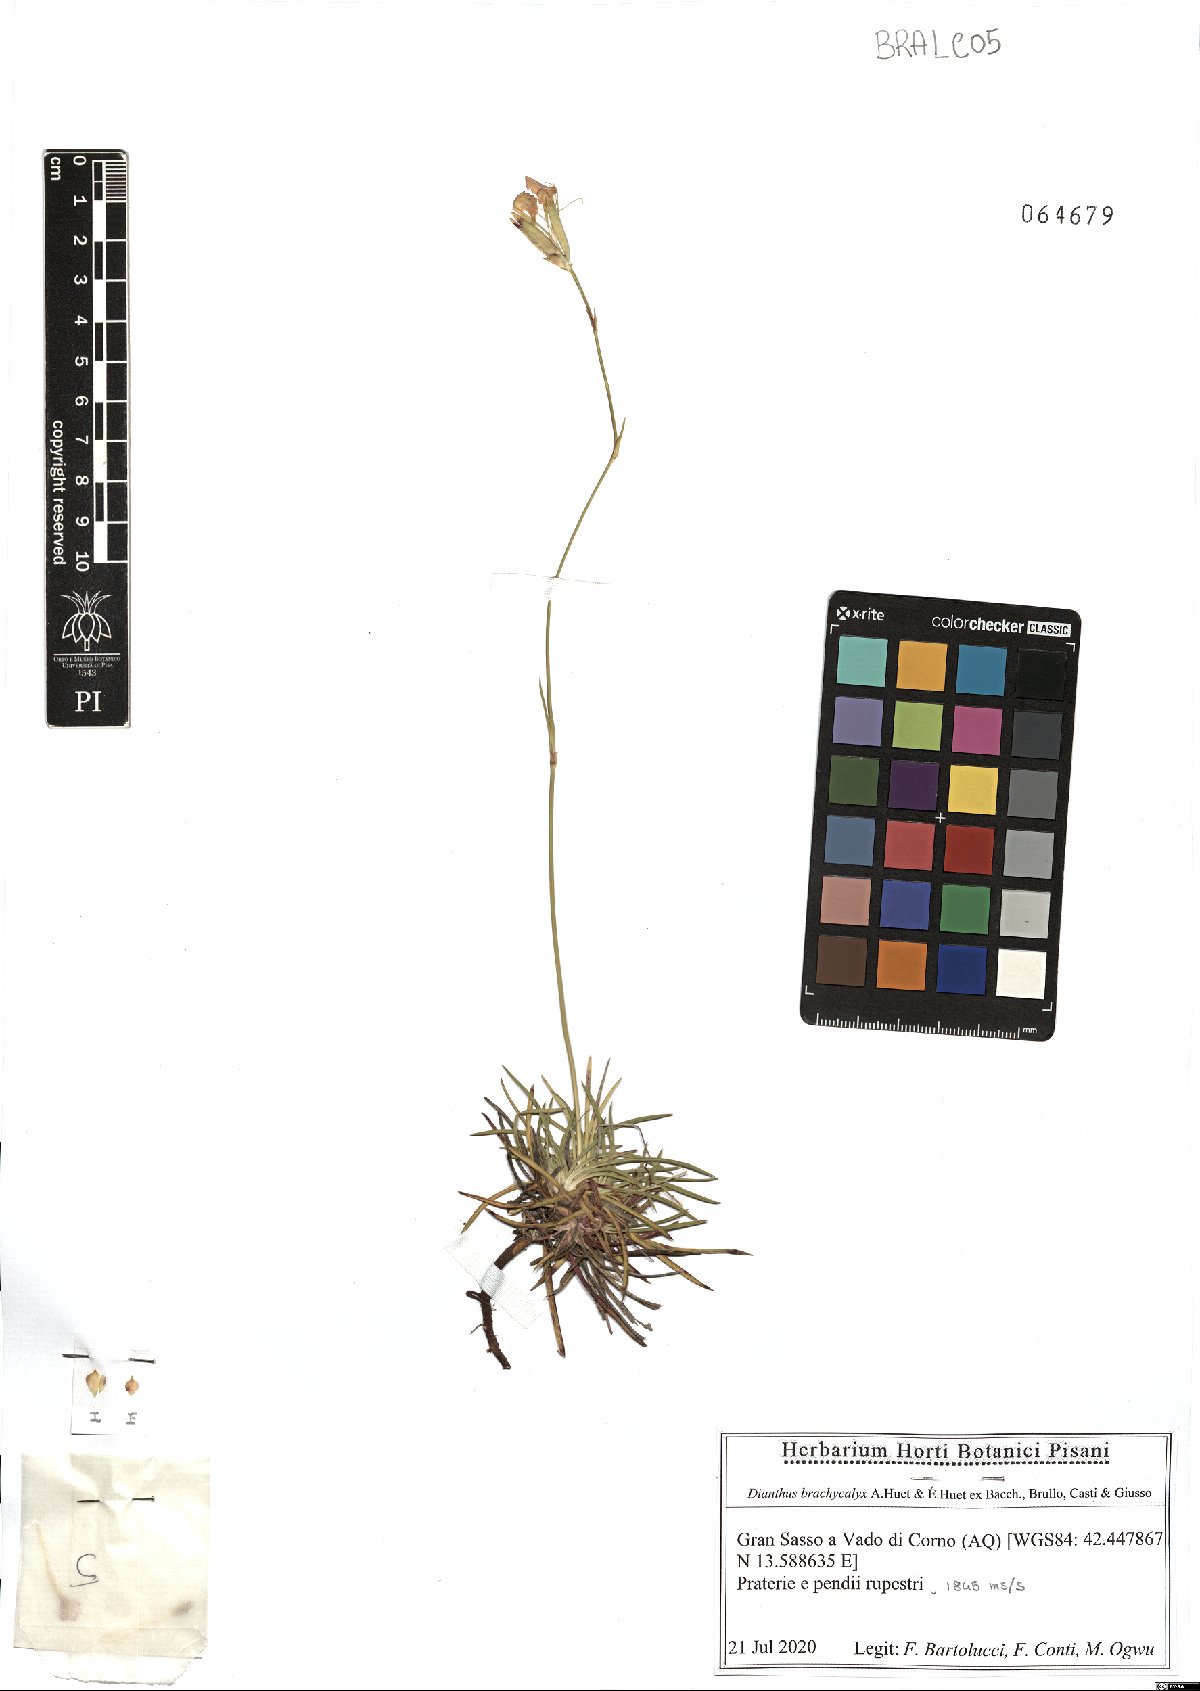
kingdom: Plantae
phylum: Tracheophyta
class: Magnoliopsida
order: Caryophyllales
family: Caryophyllaceae
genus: Dianthus
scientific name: Dianthus brachycalyx
